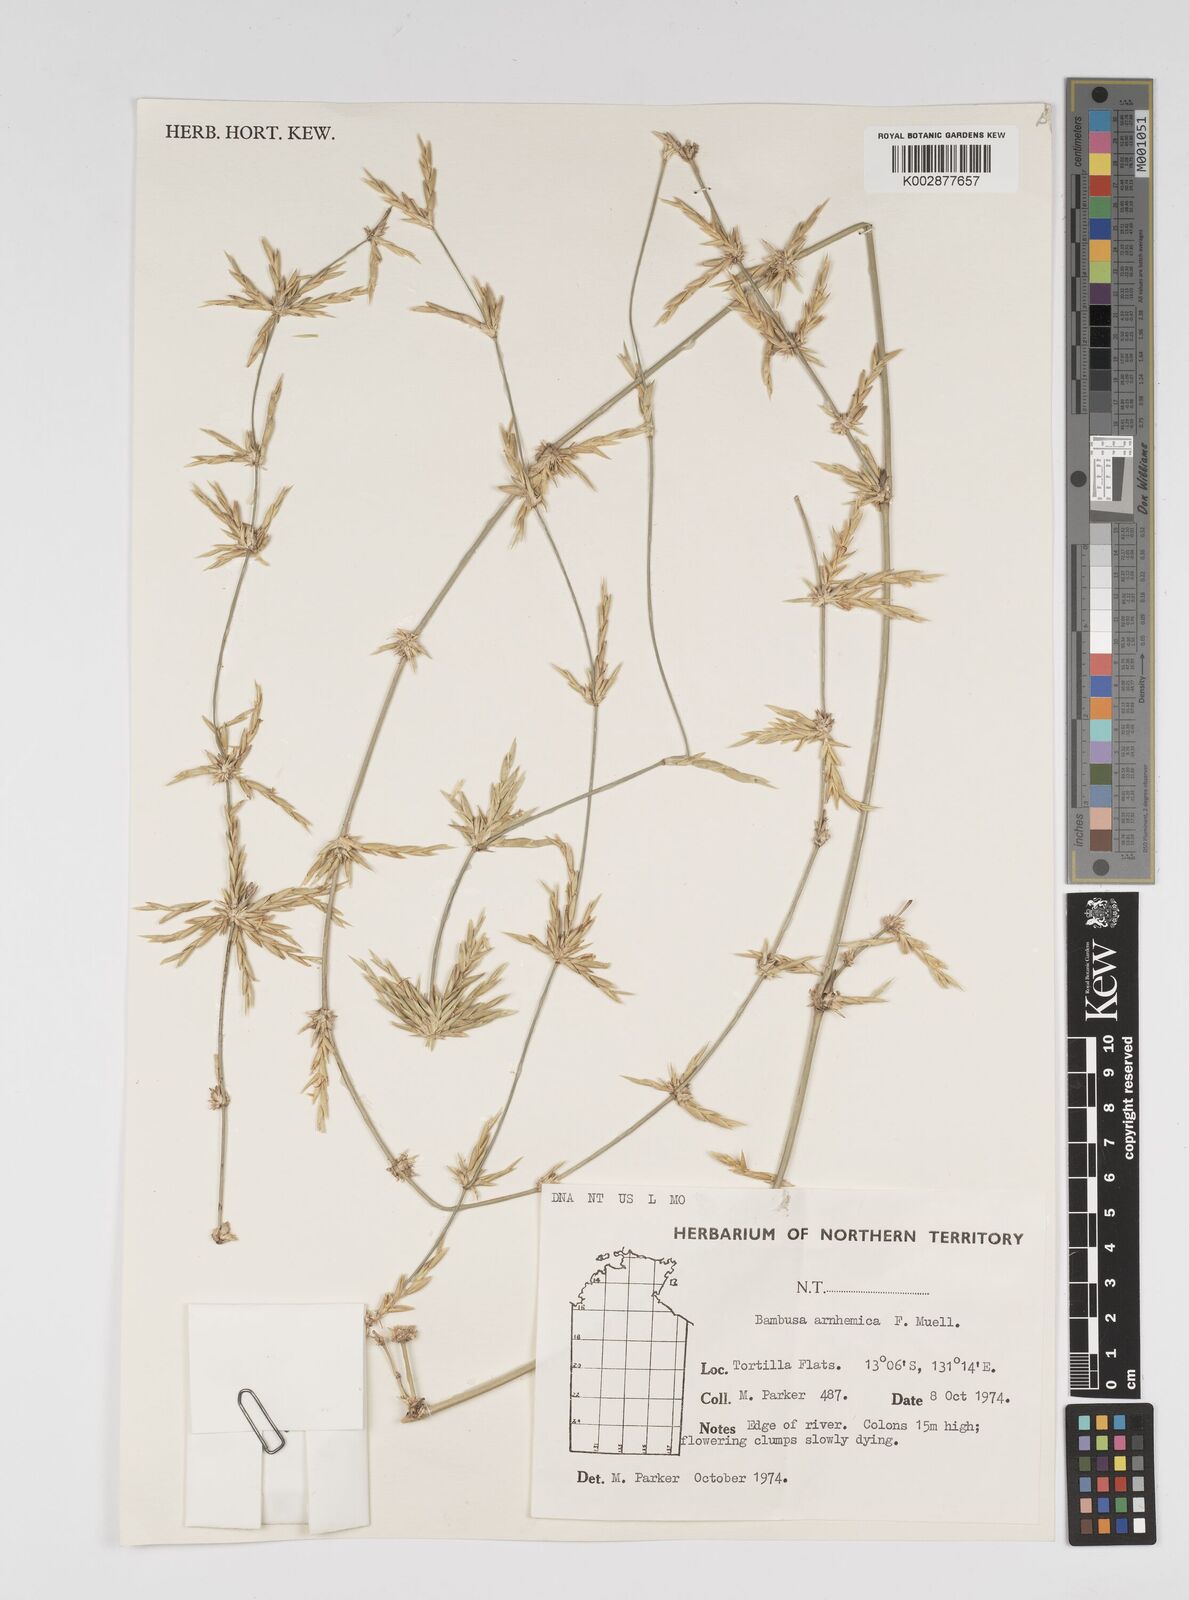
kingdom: Plantae
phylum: Tracheophyta
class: Liliopsida
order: Poales
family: Poaceae
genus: Bambusa
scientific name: Bambusa arnhemica
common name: Top-end bamboo
